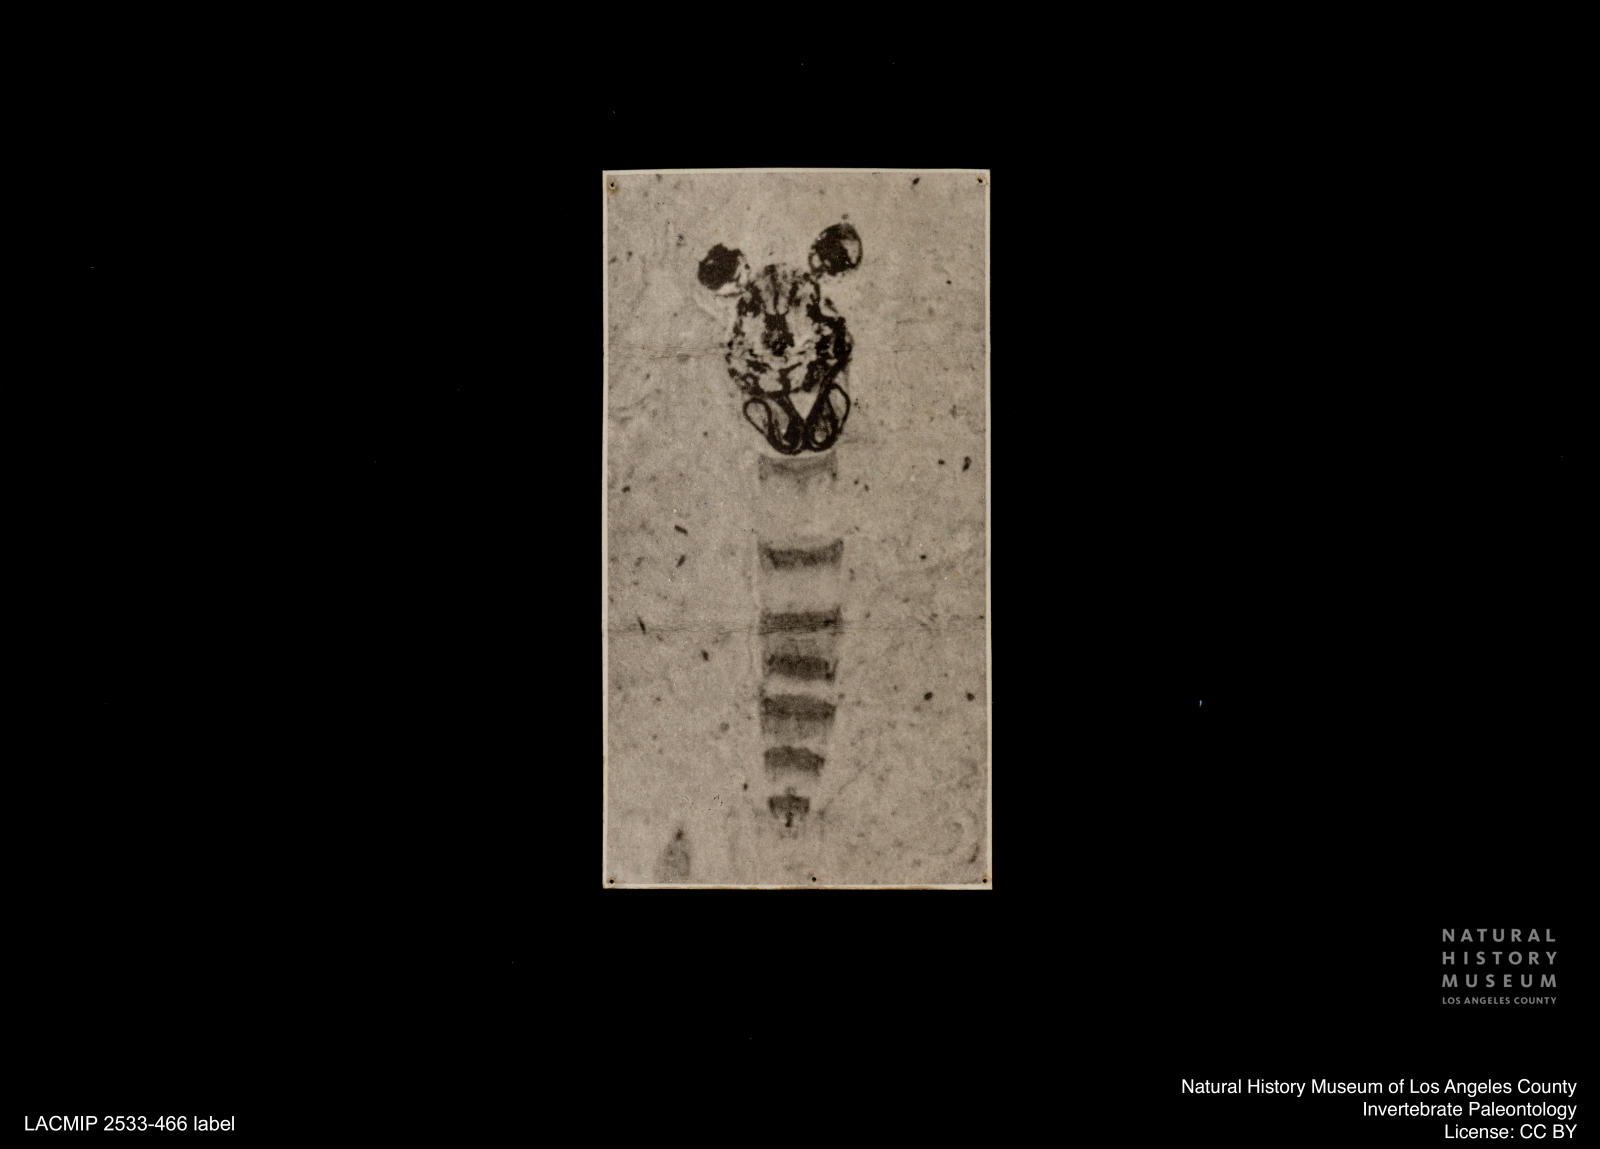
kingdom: Animalia
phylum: Arthropoda
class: Insecta
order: Diptera
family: Chironomidae
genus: Tanypus
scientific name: Tanypus
